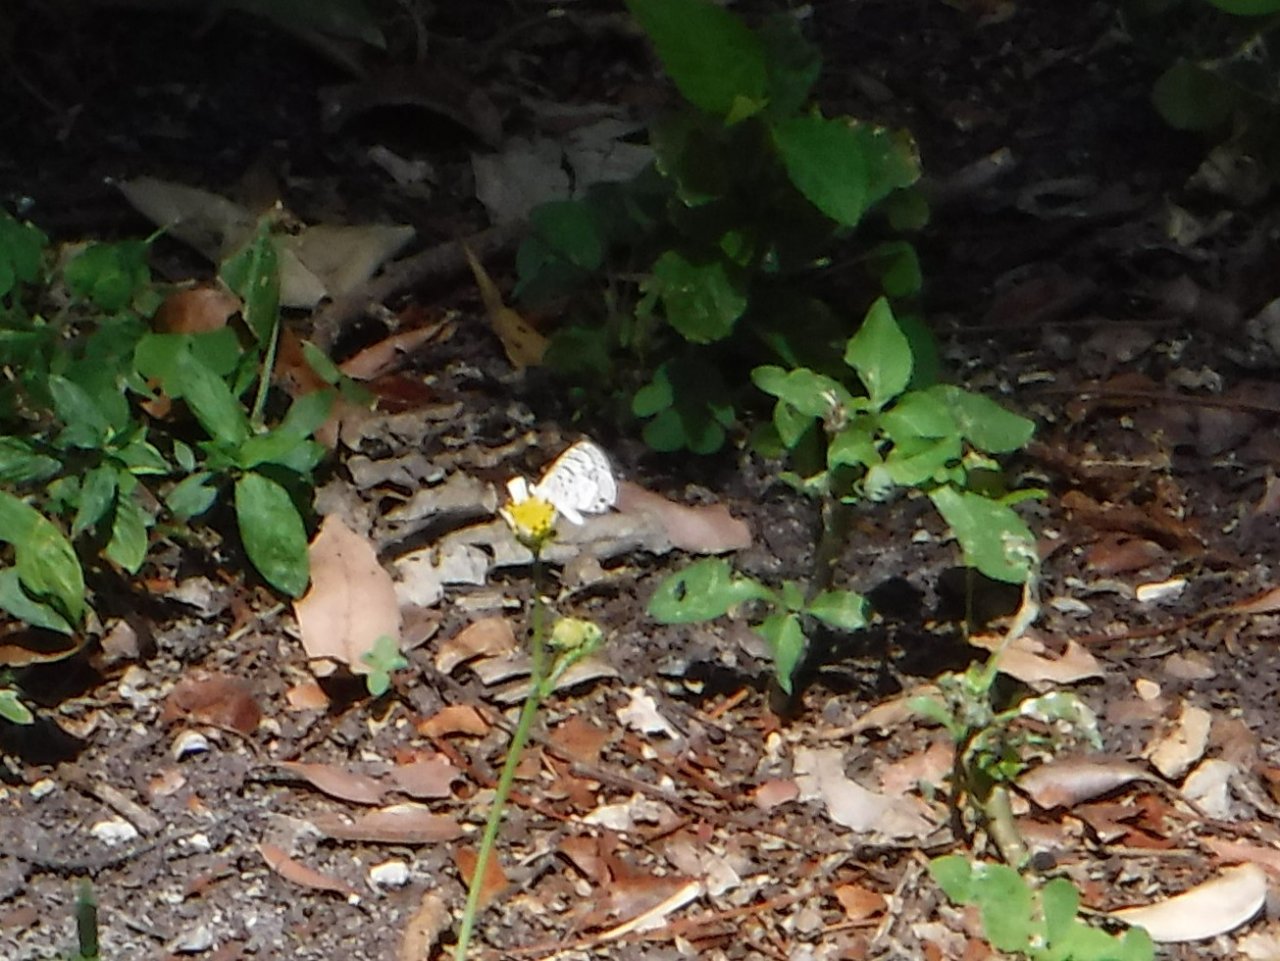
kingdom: Animalia
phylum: Arthropoda
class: Insecta
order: Lepidoptera
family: Lycaenidae
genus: Leptotes
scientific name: Leptotes cassius
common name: Cassius Blue
